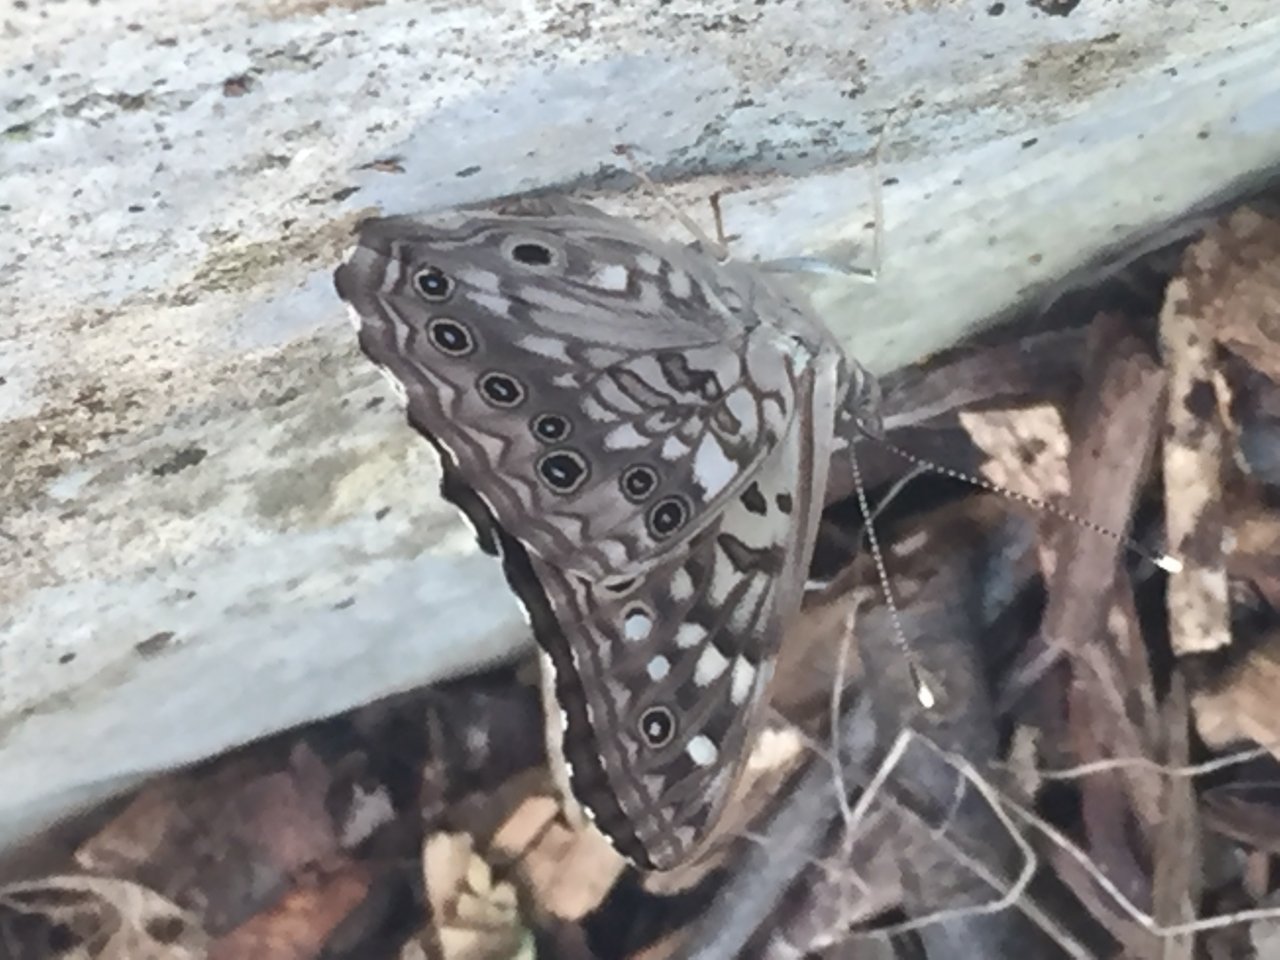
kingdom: Animalia
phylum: Arthropoda
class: Insecta
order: Lepidoptera
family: Nymphalidae
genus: Asterocampa
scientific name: Asterocampa celtis
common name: Hackberry Emperor
